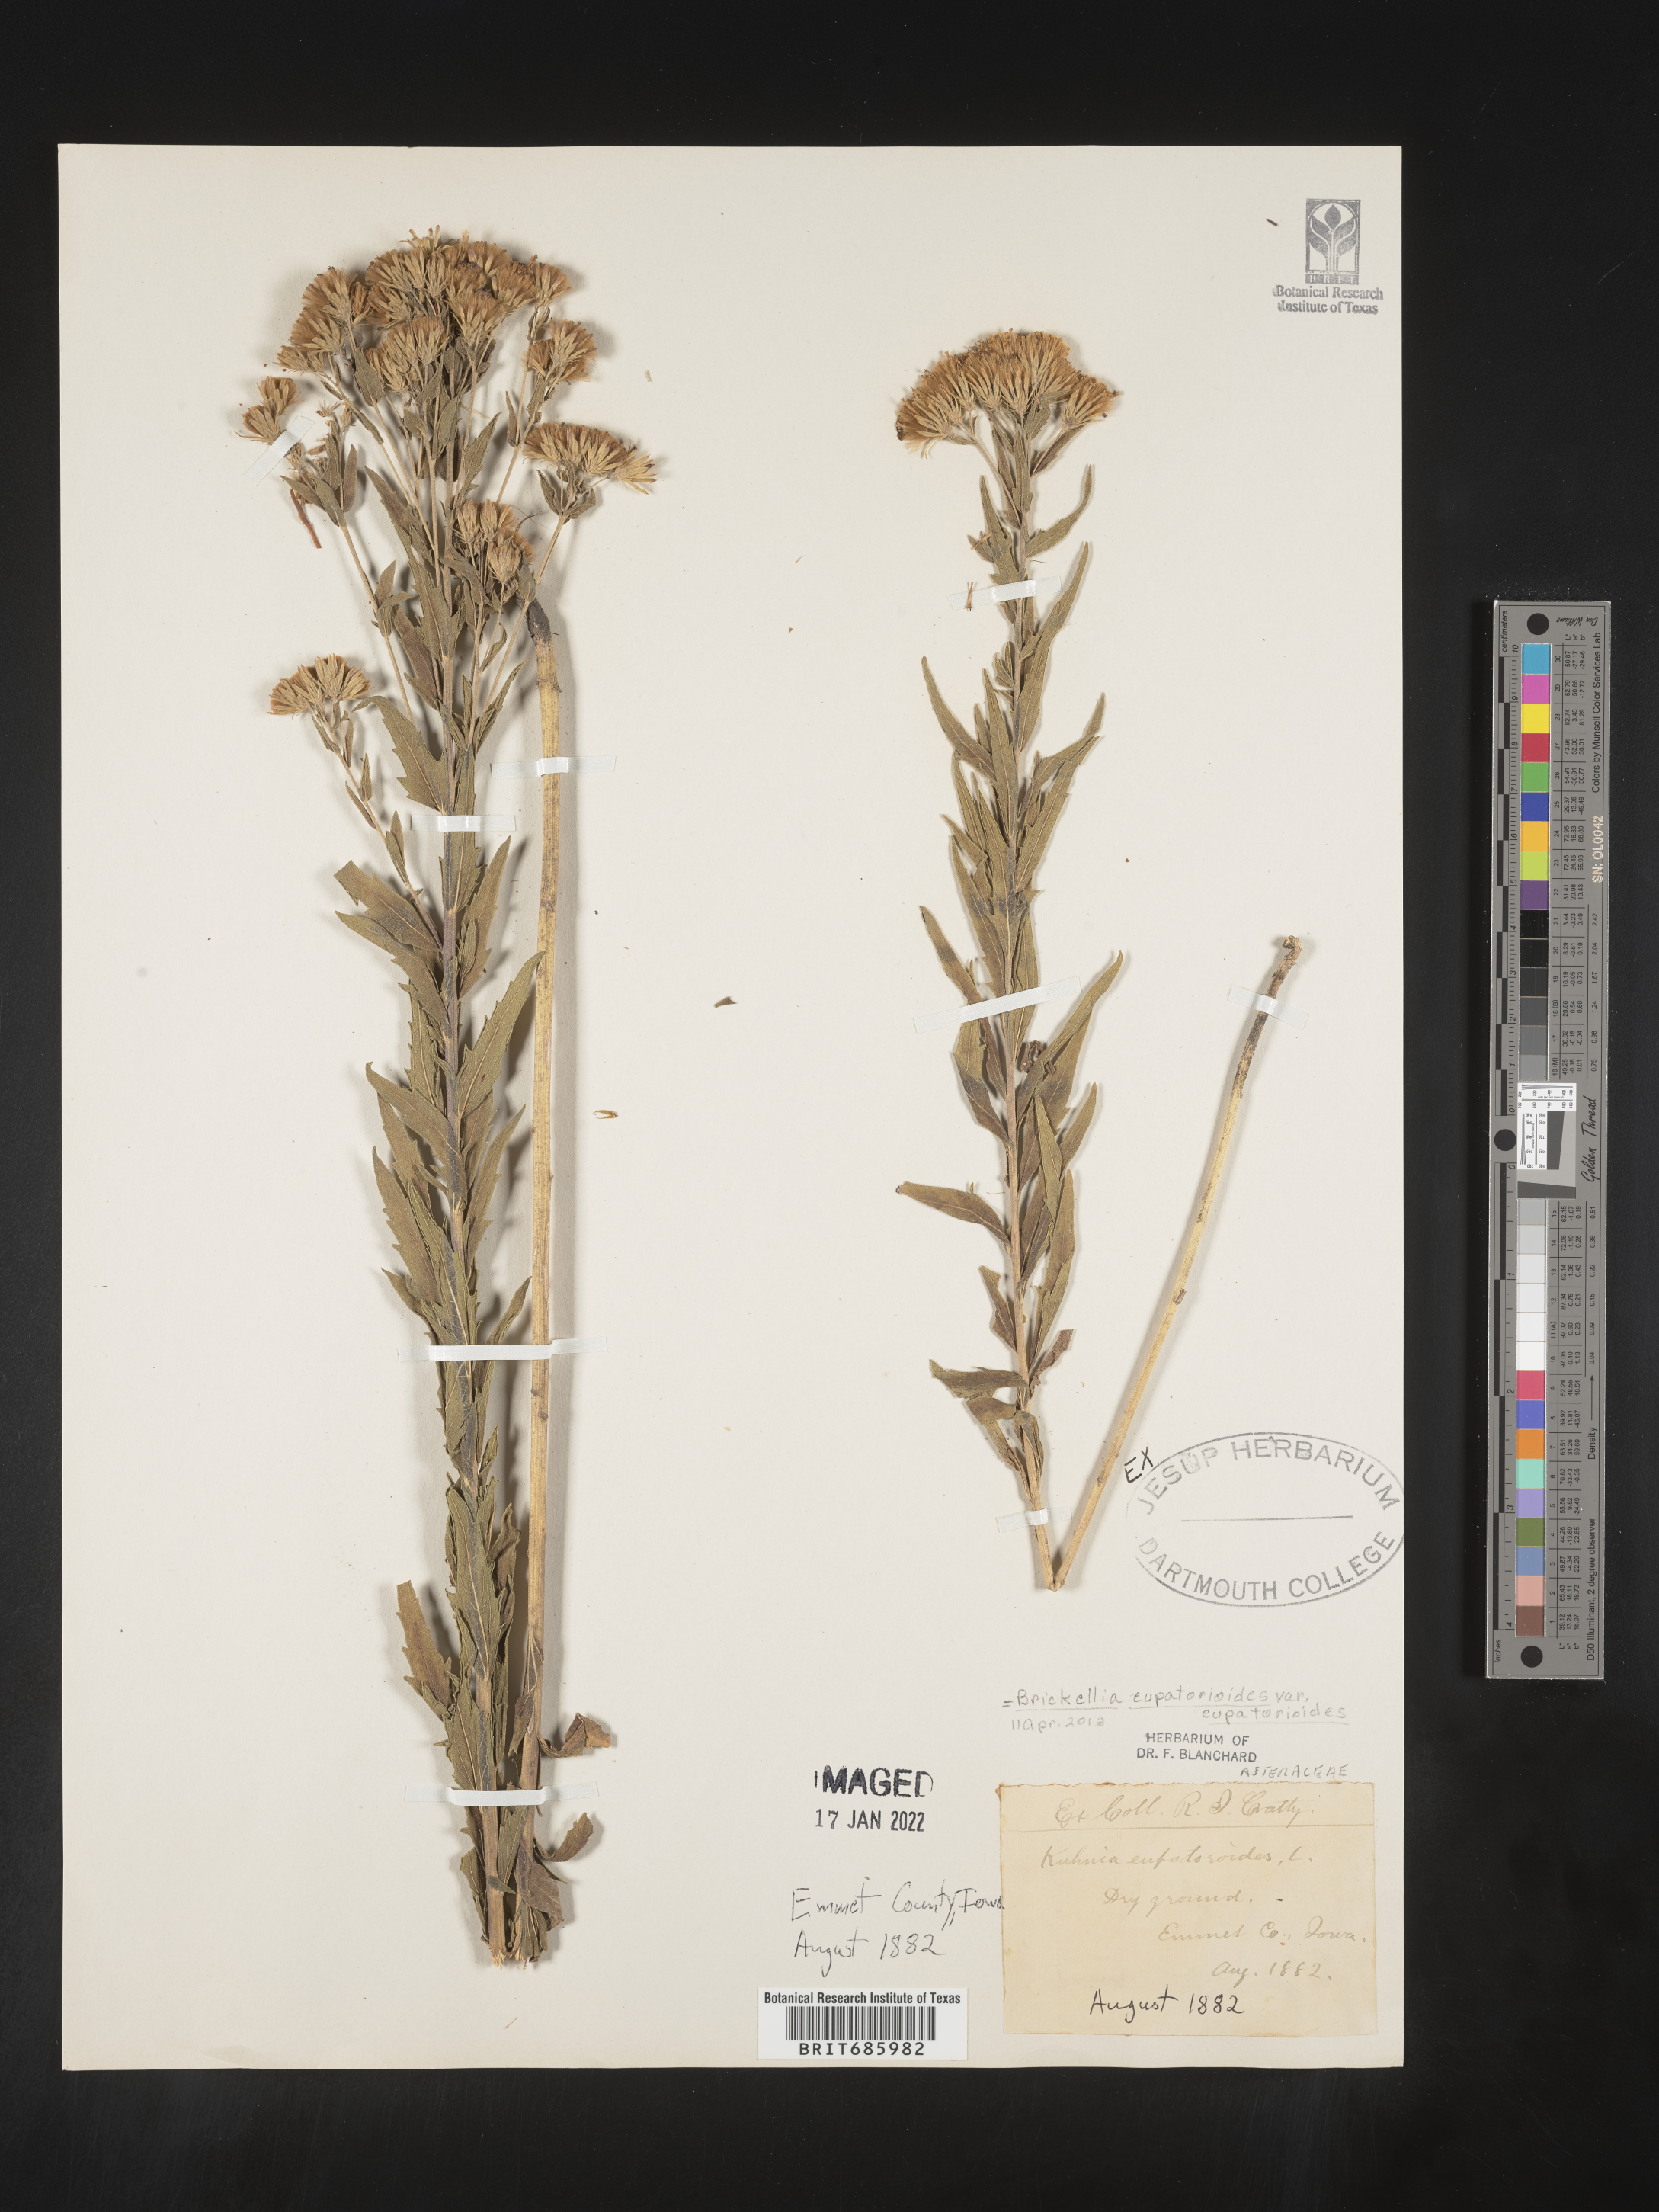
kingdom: Plantae
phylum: Tracheophyta
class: Magnoliopsida
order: Asterales
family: Asteraceae
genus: Brickellia
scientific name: Brickellia eupatorioides
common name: False boneset
